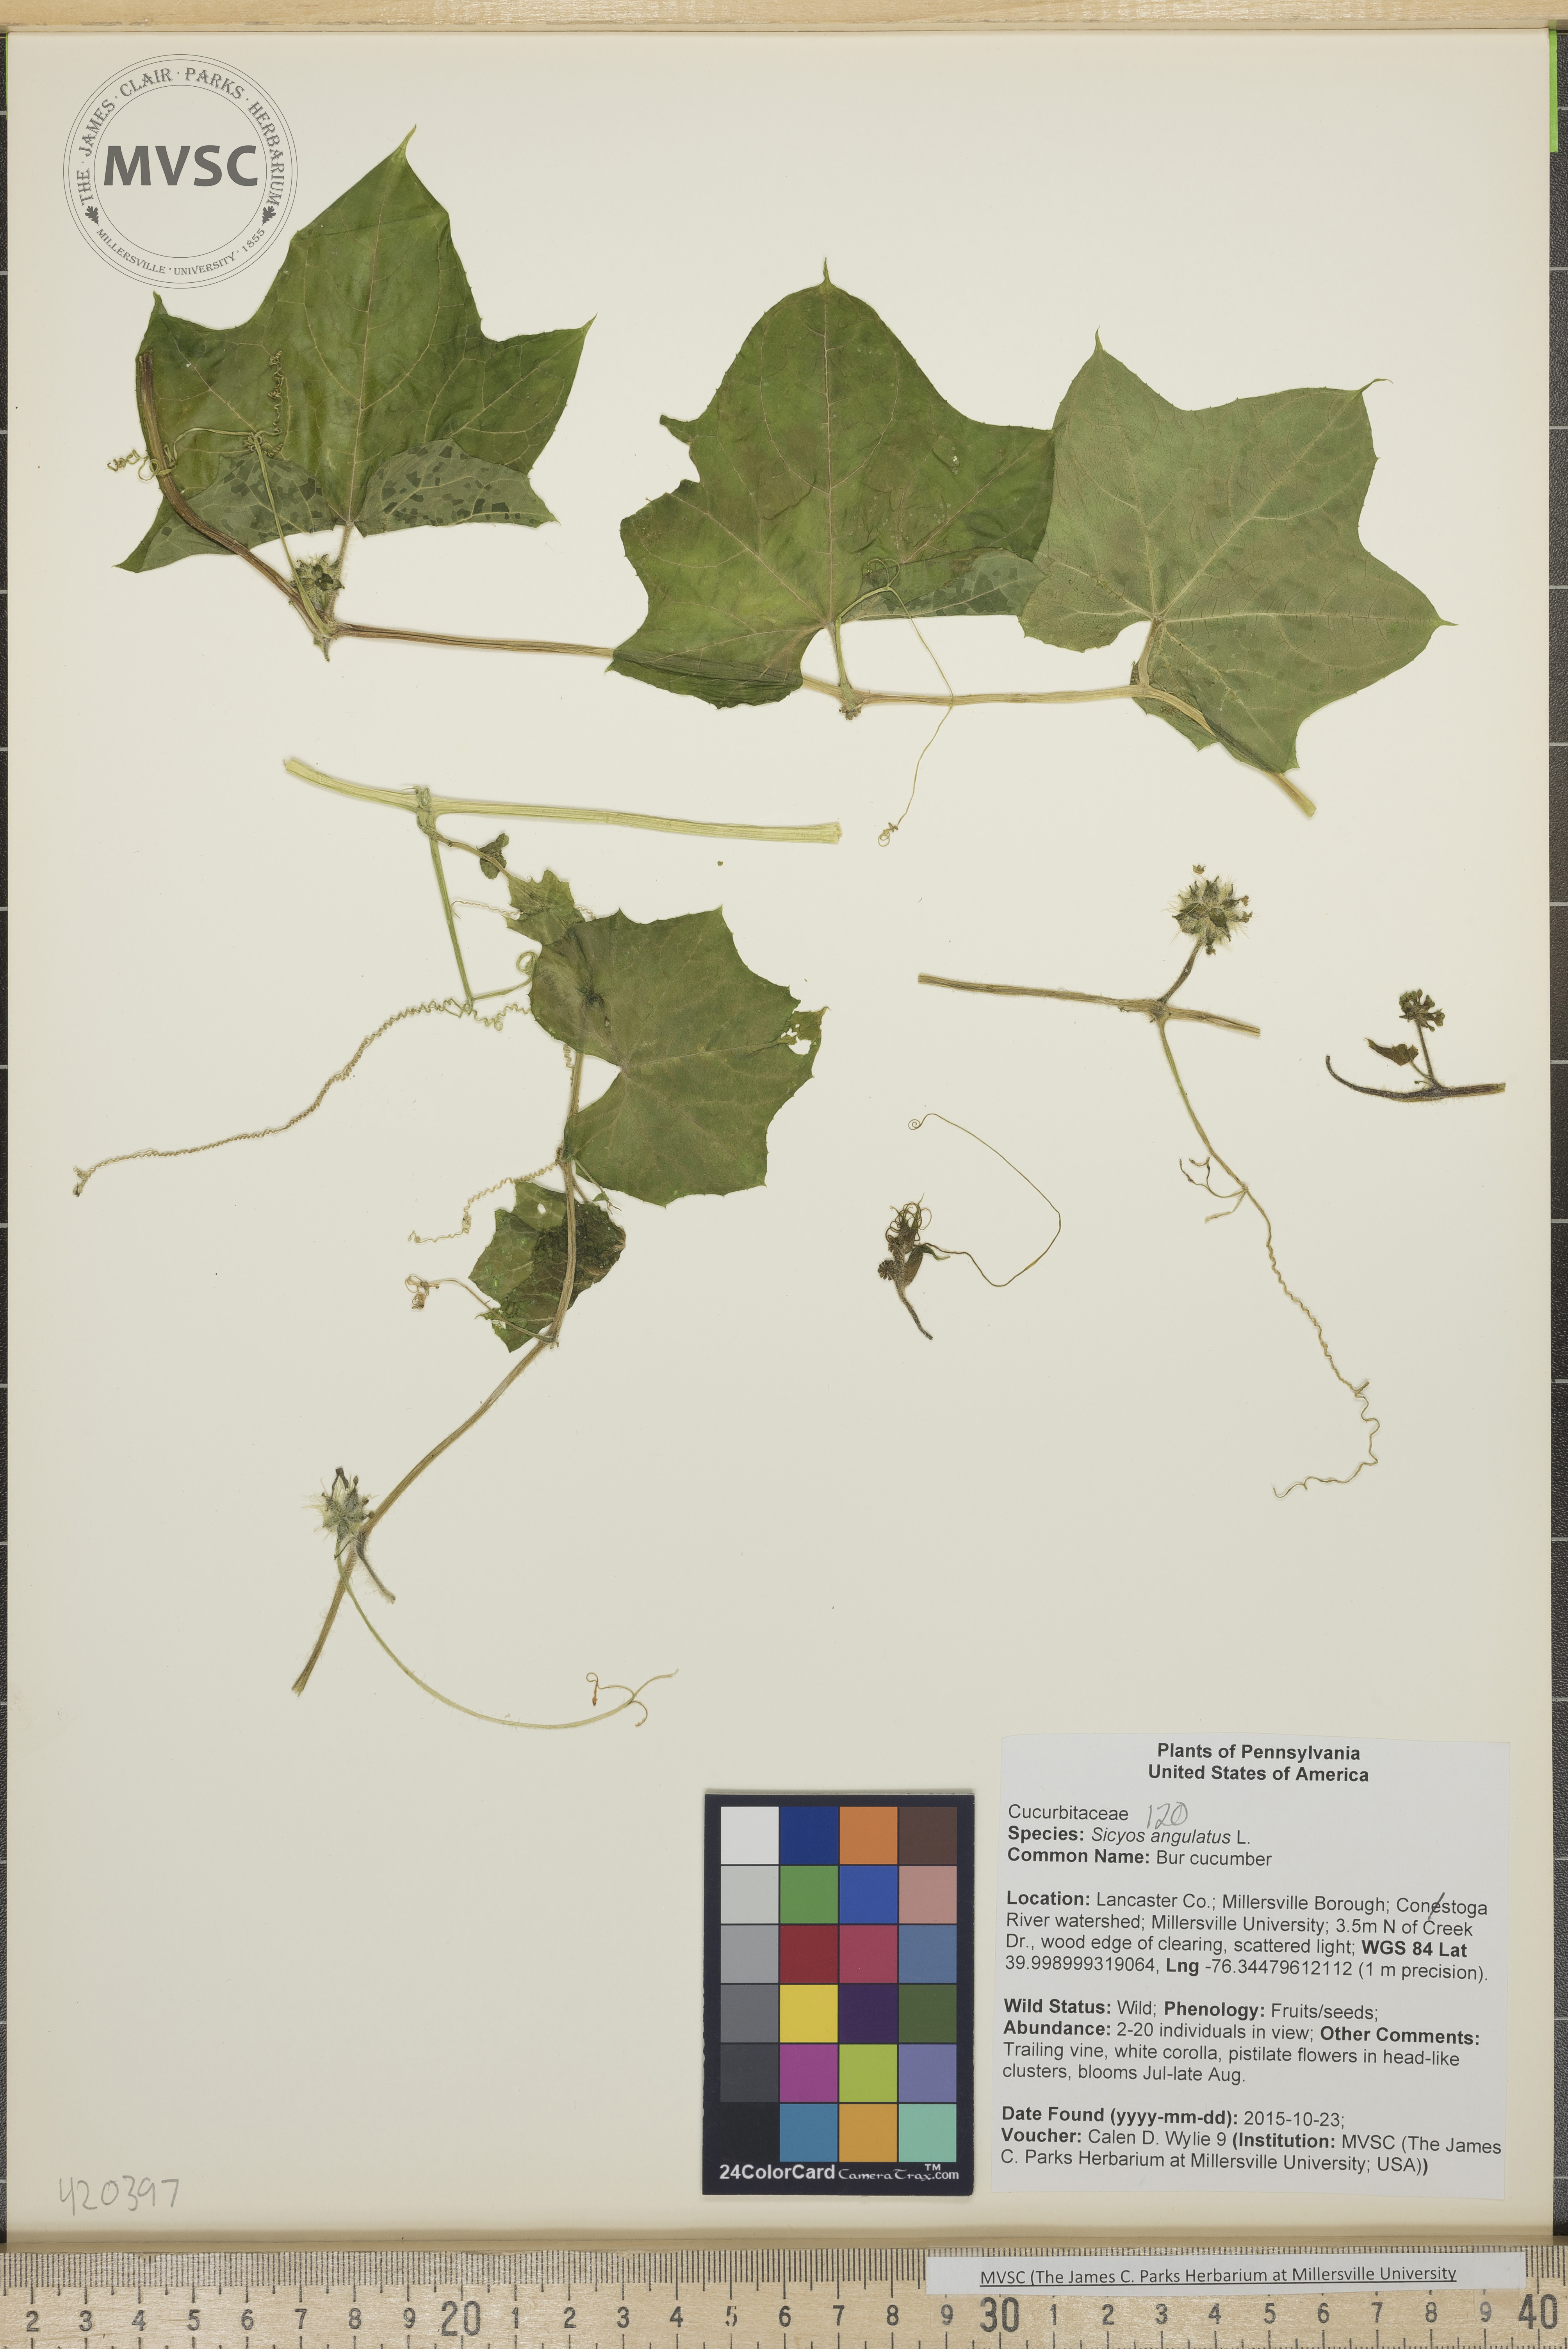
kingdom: Plantae
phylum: Tracheophyta
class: Magnoliopsida
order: Cucurbitales
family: Cucurbitaceae
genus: Sicyos
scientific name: Sicyos angulatus
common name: Bur cucumber
